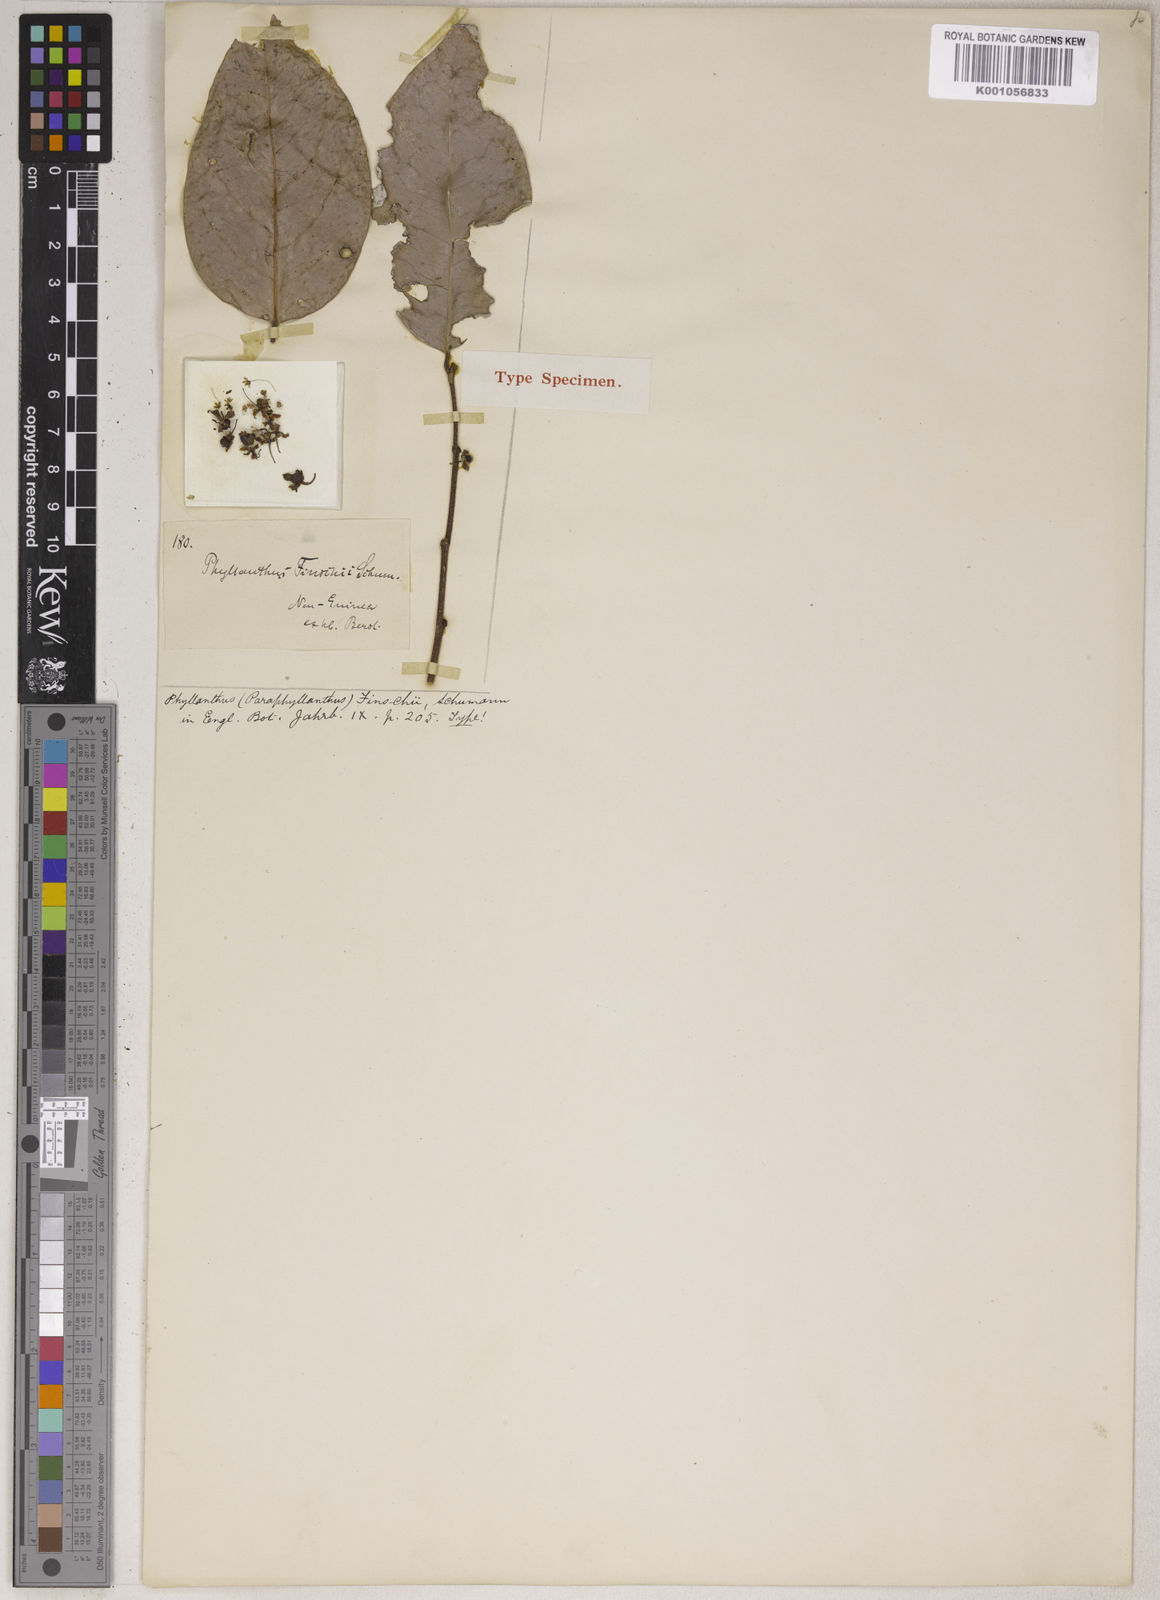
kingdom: Plantae
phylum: Tracheophyta
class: Magnoliopsida
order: Malpighiales
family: Phyllanthaceae
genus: Phyllanthus
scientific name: Phyllanthus finschii
